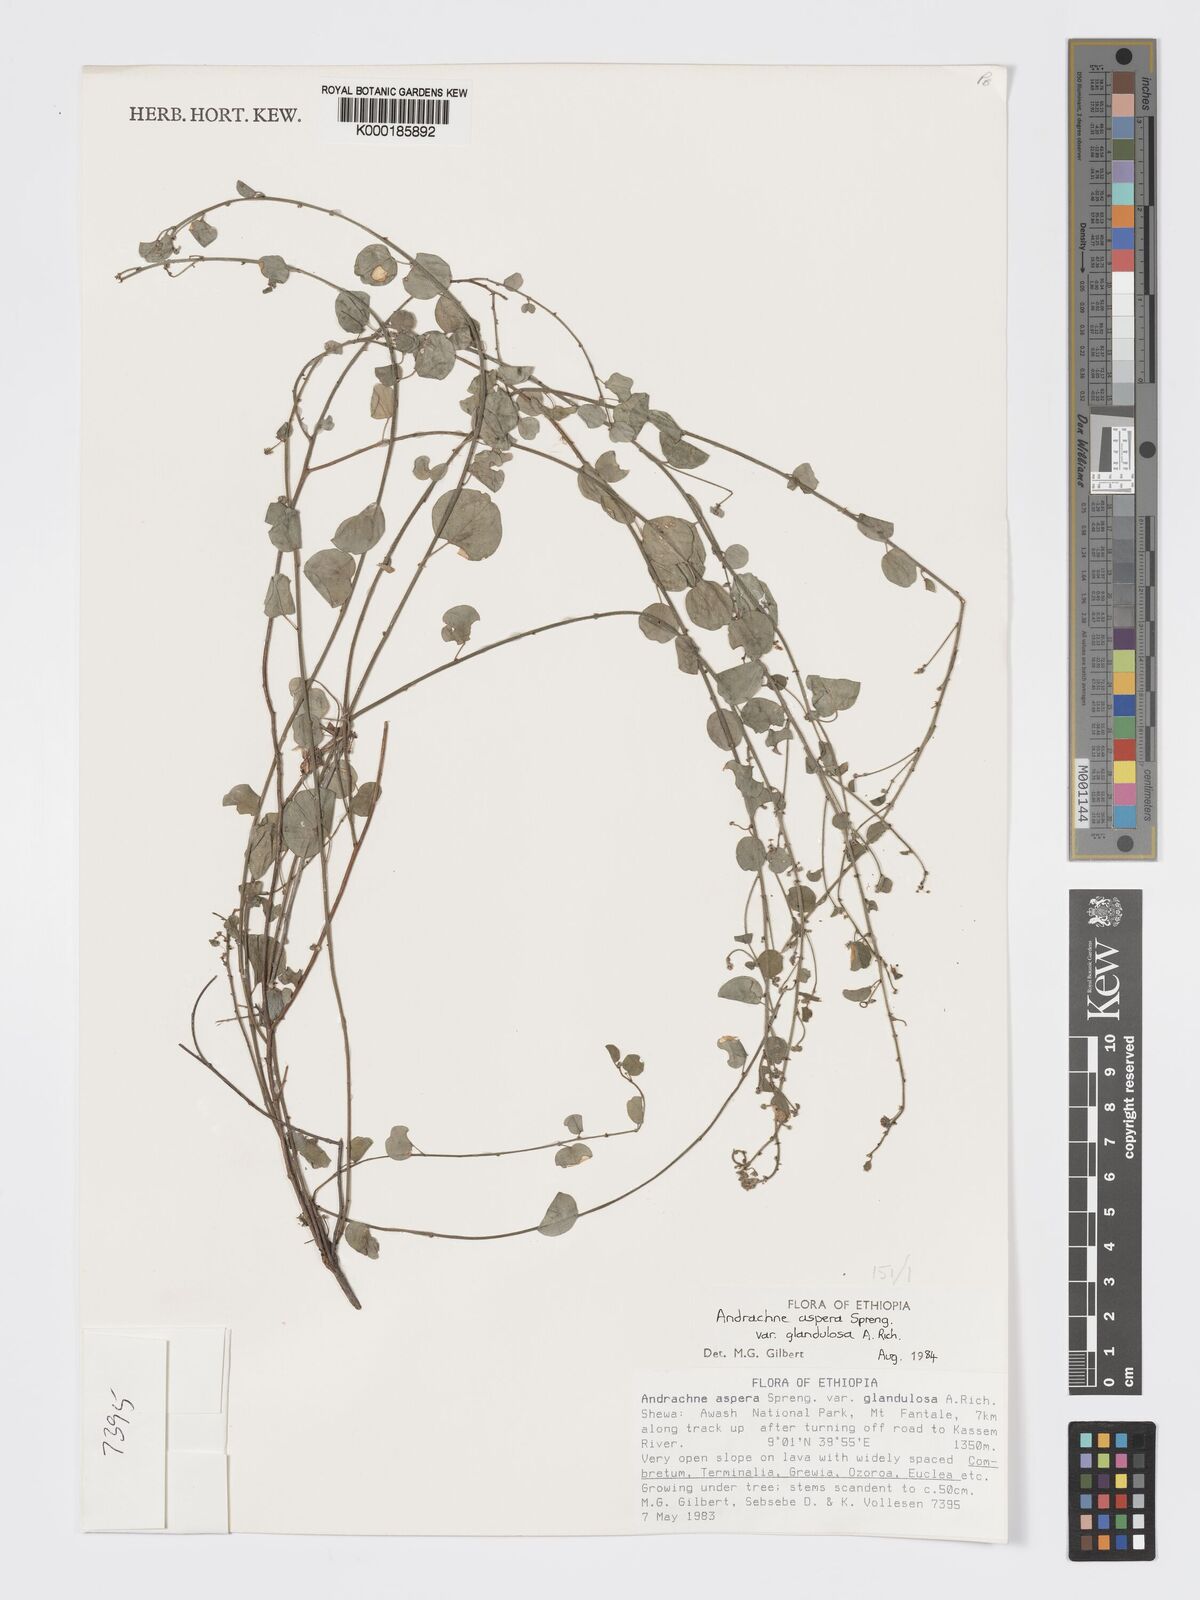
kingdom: Plantae
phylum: Tracheophyta
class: Magnoliopsida
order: Malpighiales
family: Phyllanthaceae
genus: Andrachne
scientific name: Andrachne aspera
